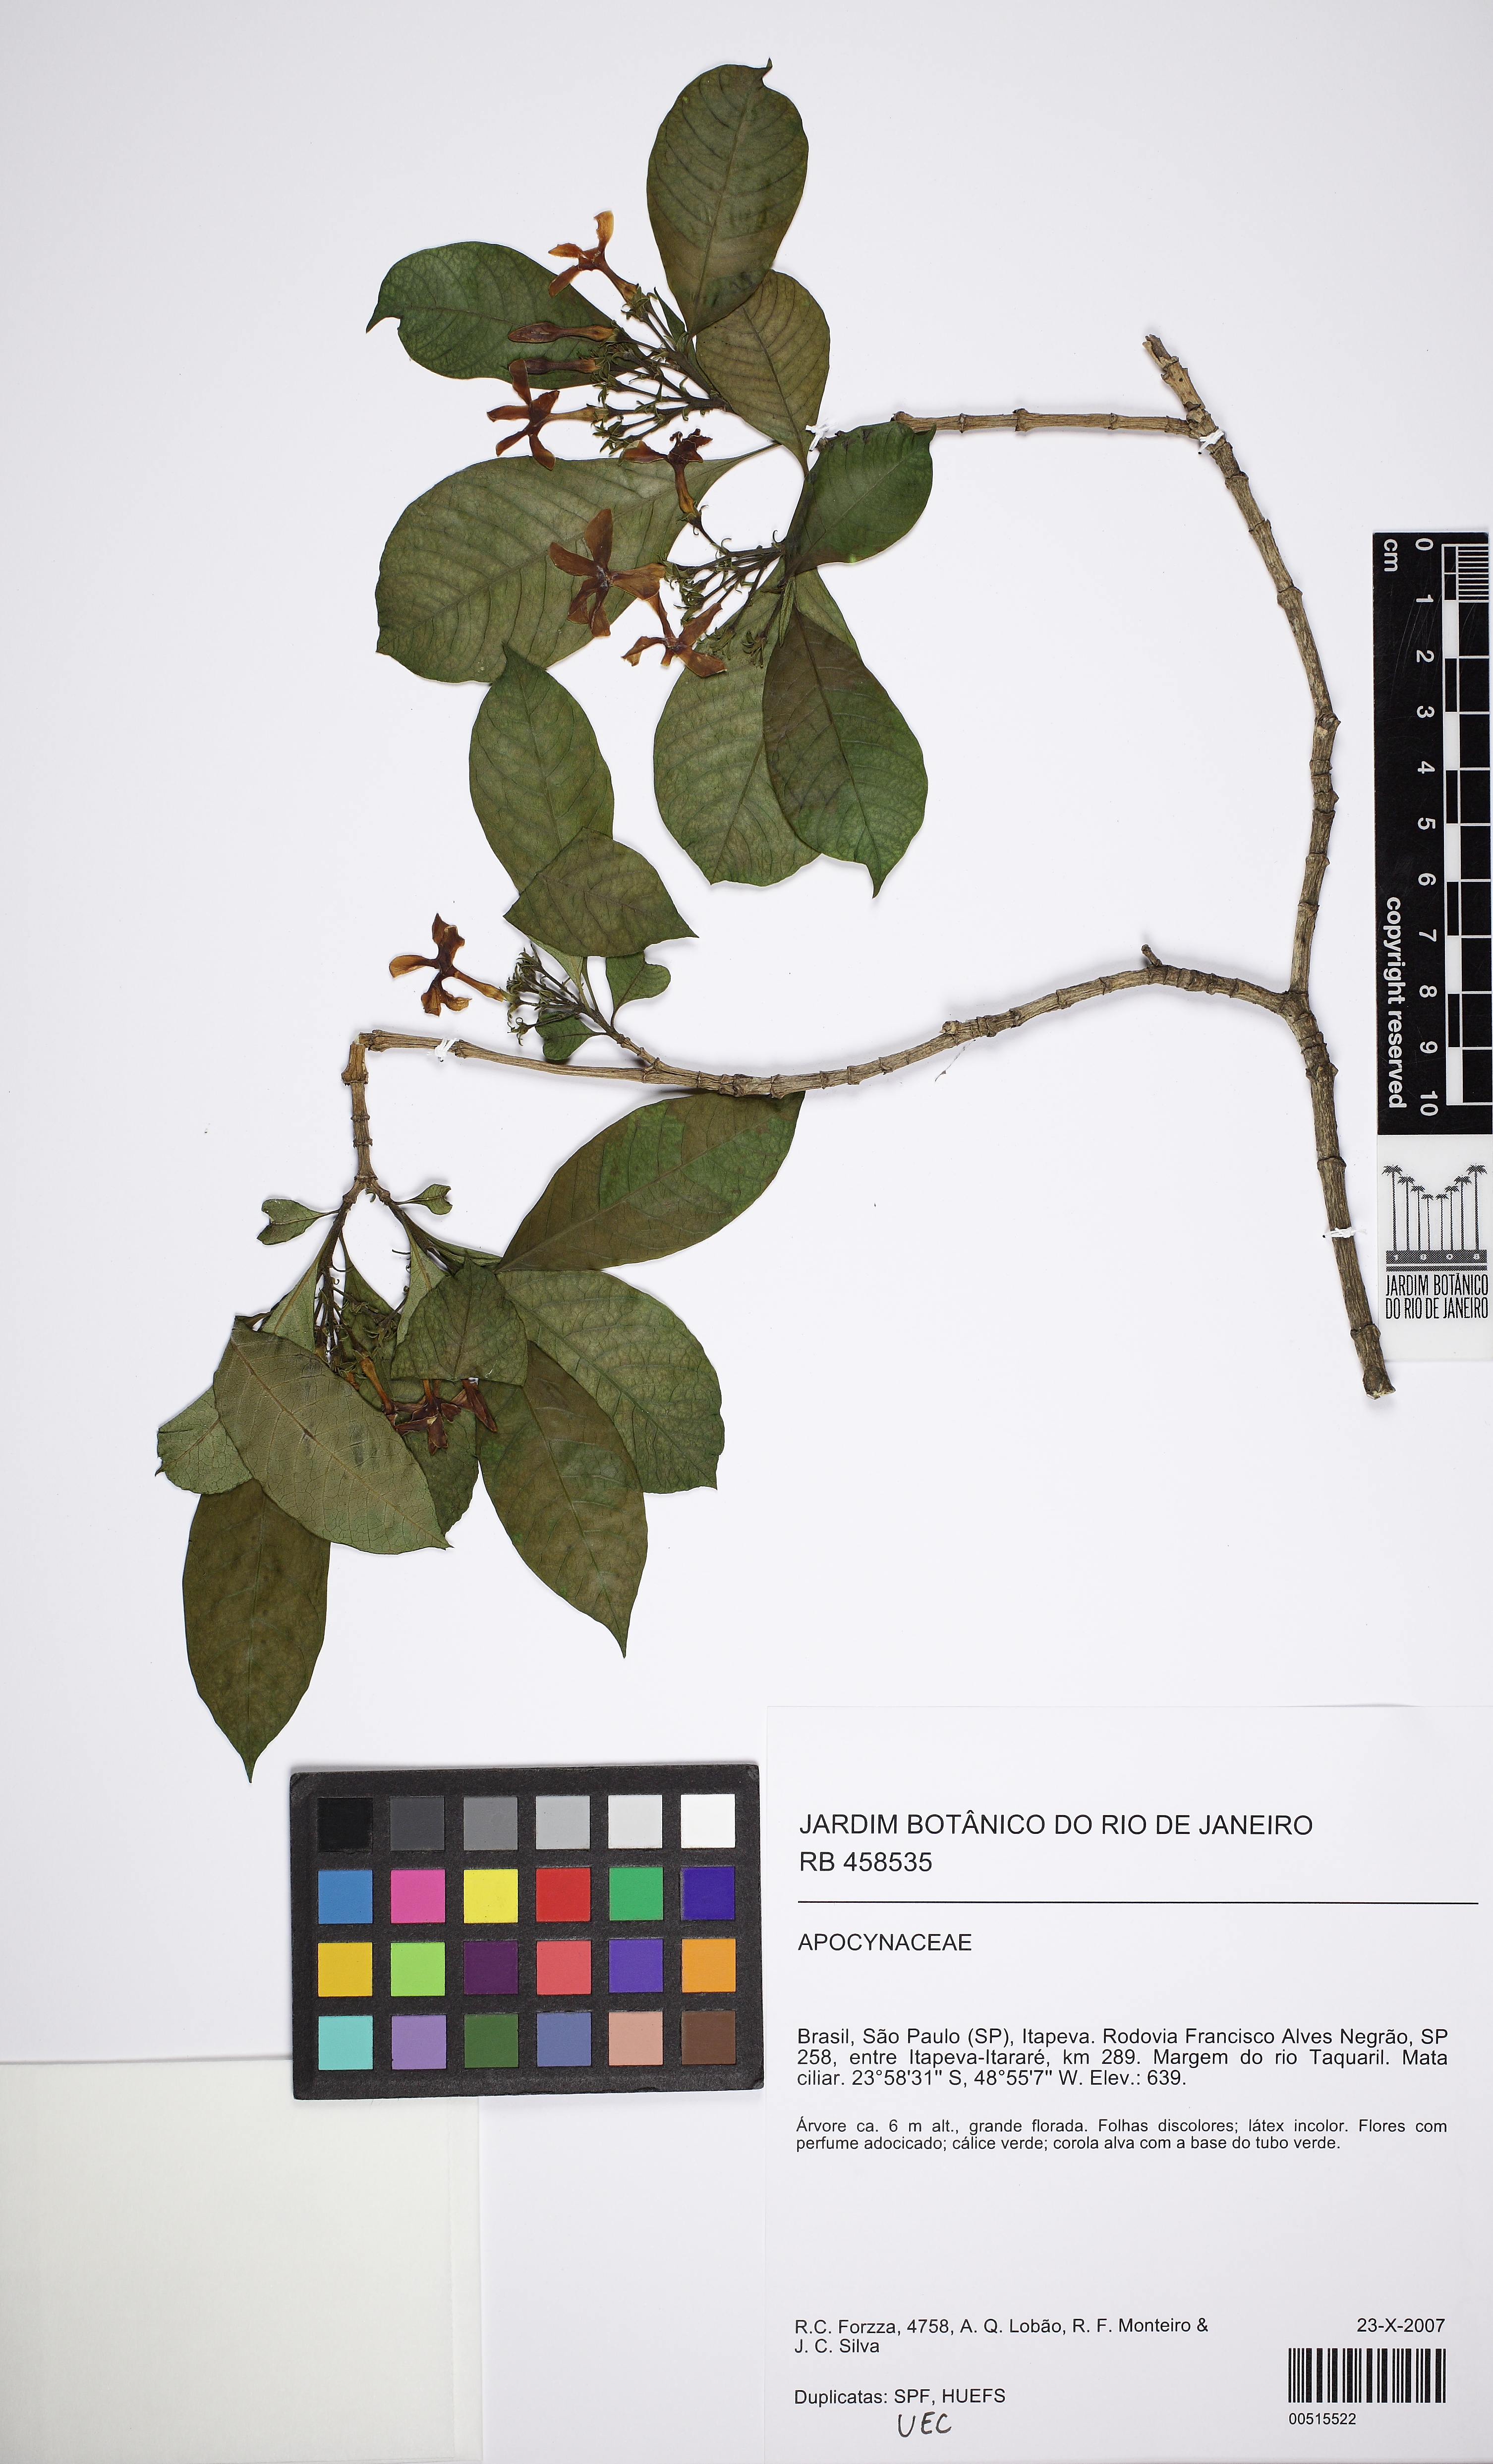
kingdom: Plantae
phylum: Tracheophyta
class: Magnoliopsida
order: Gentianales
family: Apocynaceae
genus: Tabernaemontana
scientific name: Tabernaemontana catharinensis
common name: Pinwheel-flower
